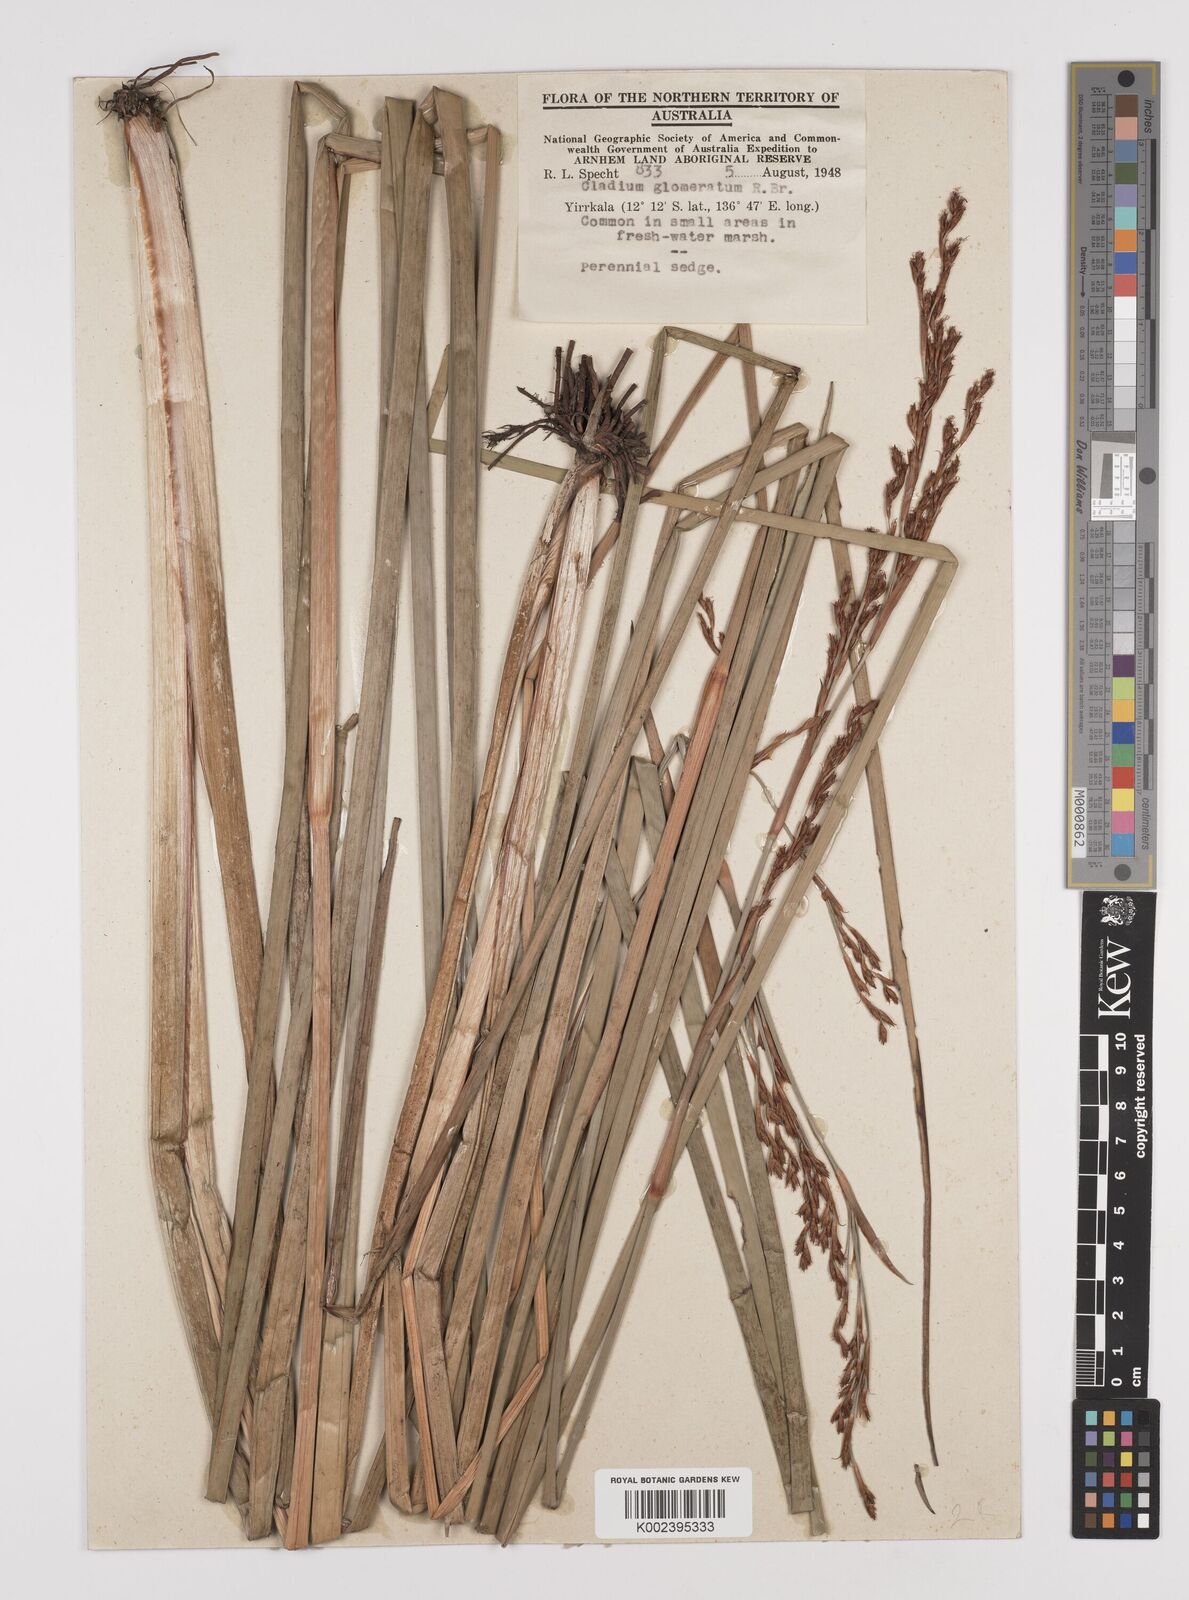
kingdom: Plantae
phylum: Tracheophyta
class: Liliopsida
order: Poales
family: Cyperaceae
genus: Machaerina
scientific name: Machaerina rubiginosa
